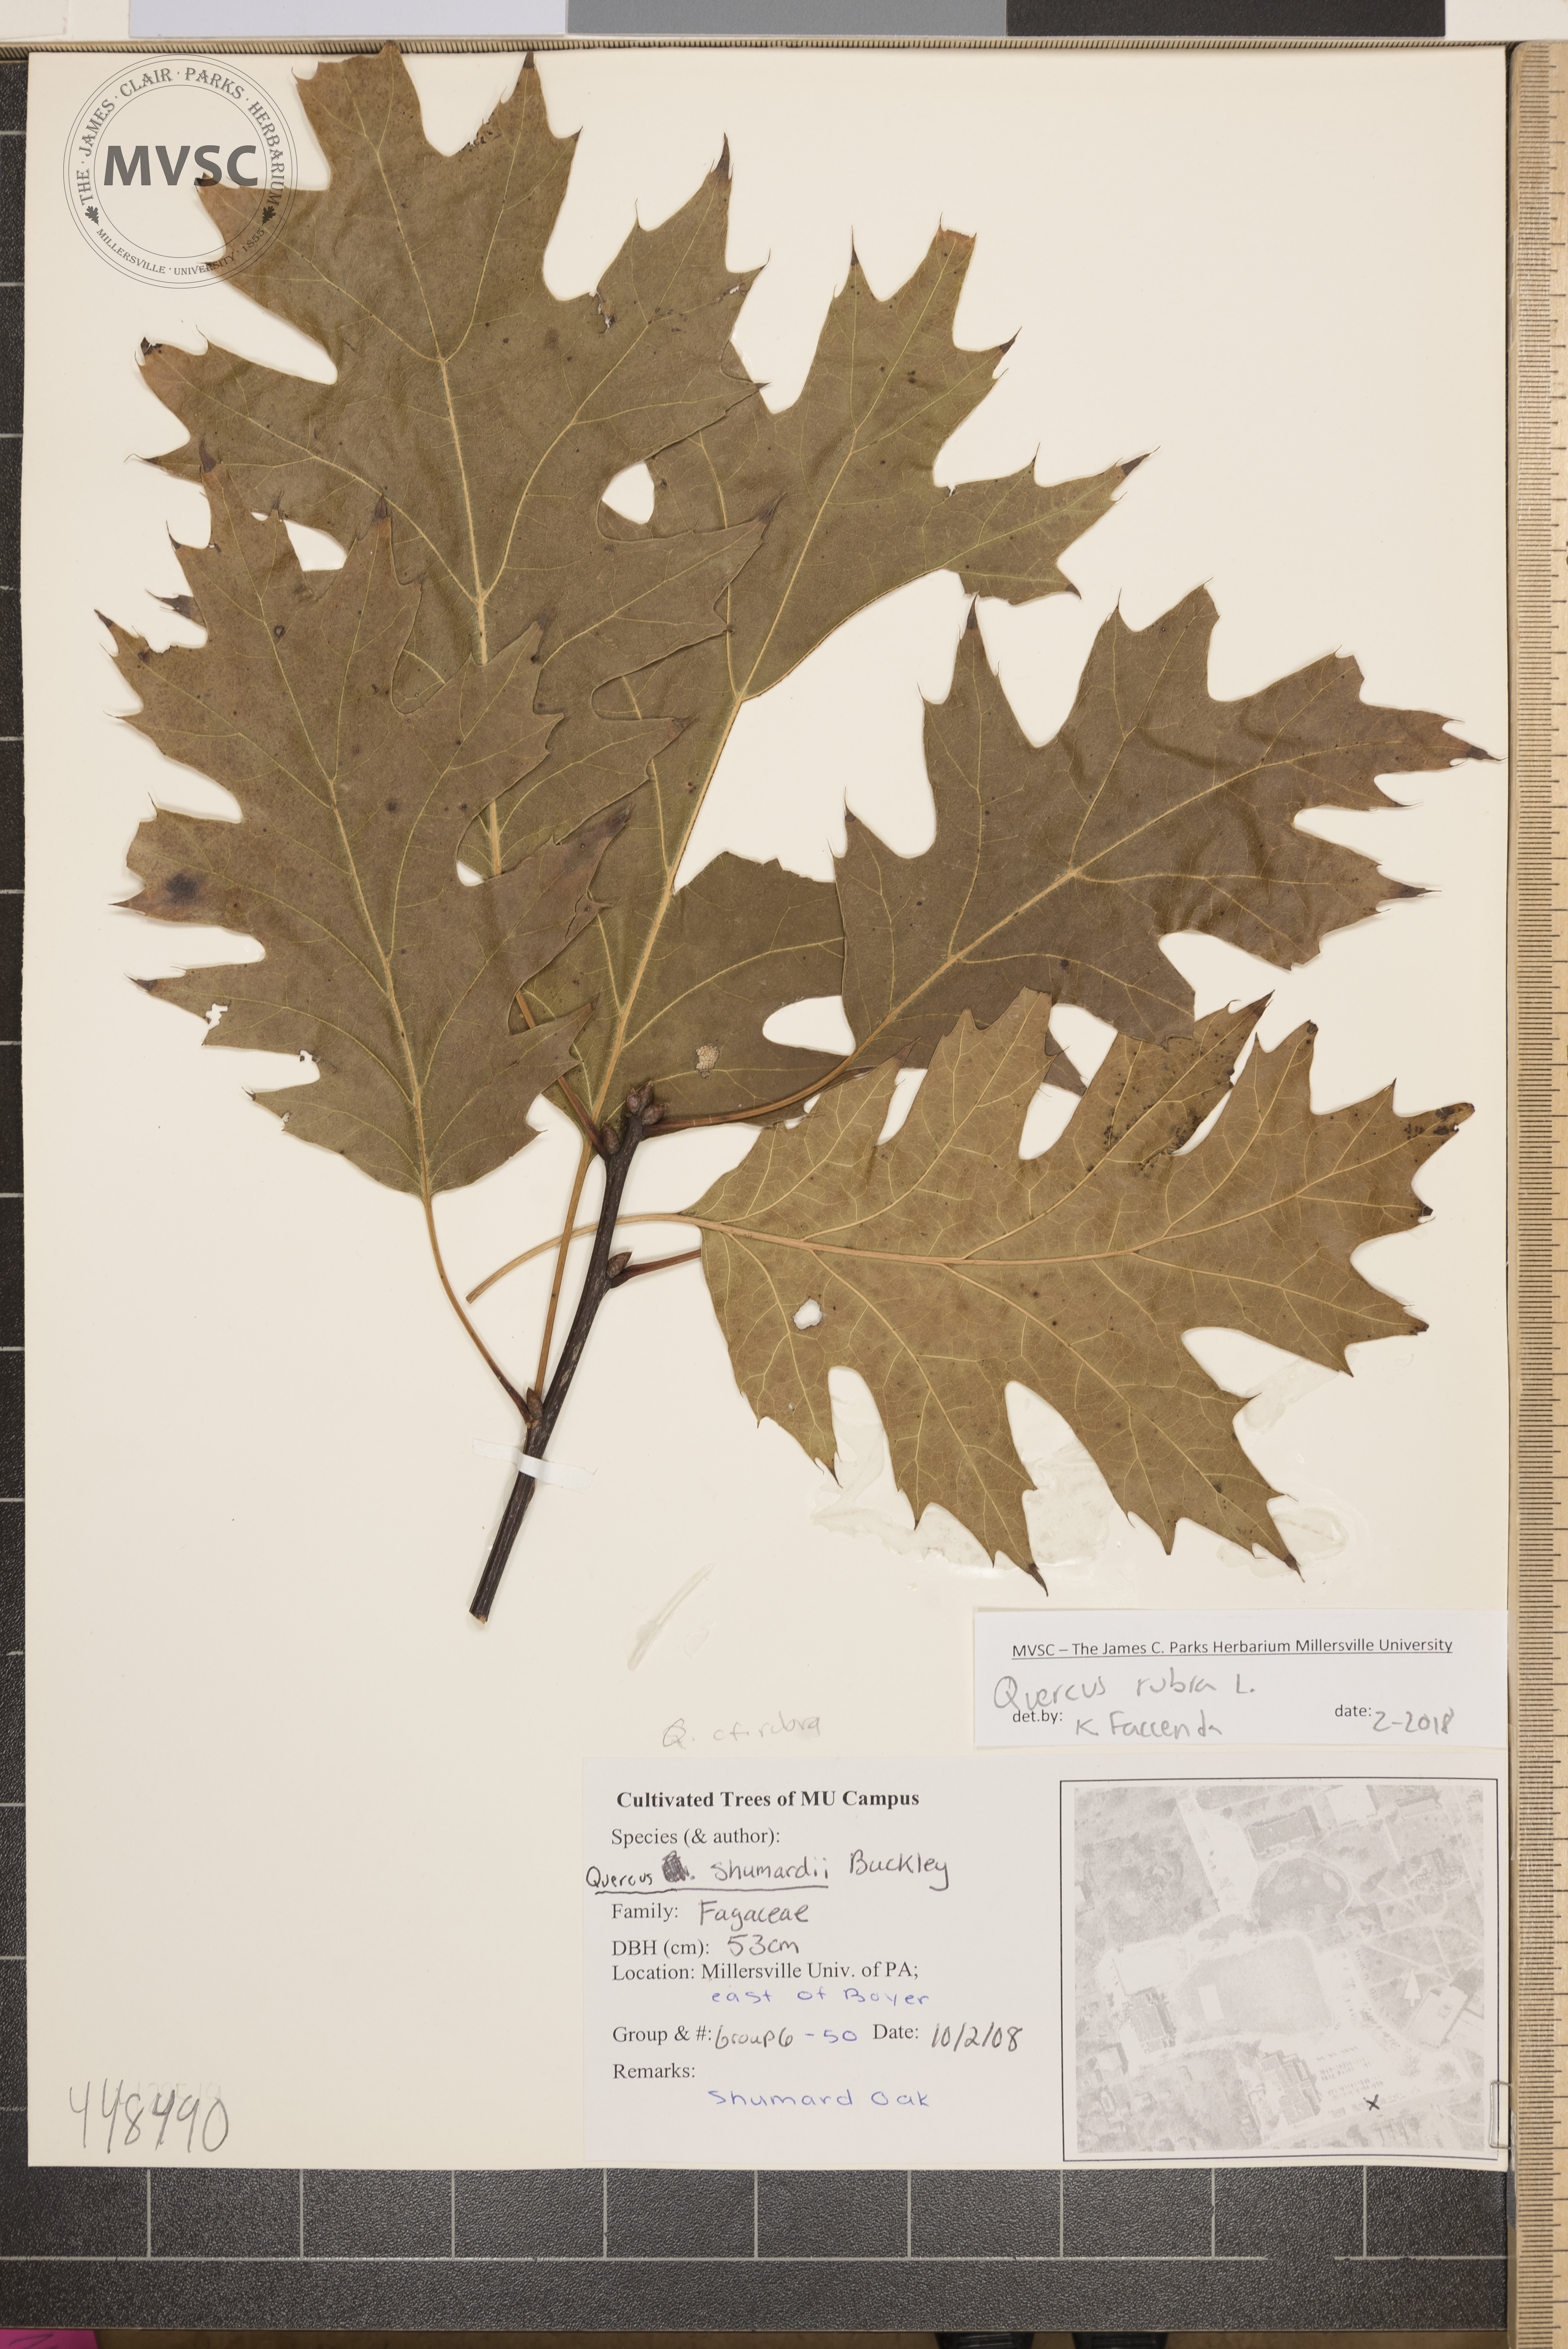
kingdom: Plantae
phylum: Tracheophyta
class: Magnoliopsida
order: Fagales
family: Fagaceae
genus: Quercus
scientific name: Quercus rubra
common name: Red oak
